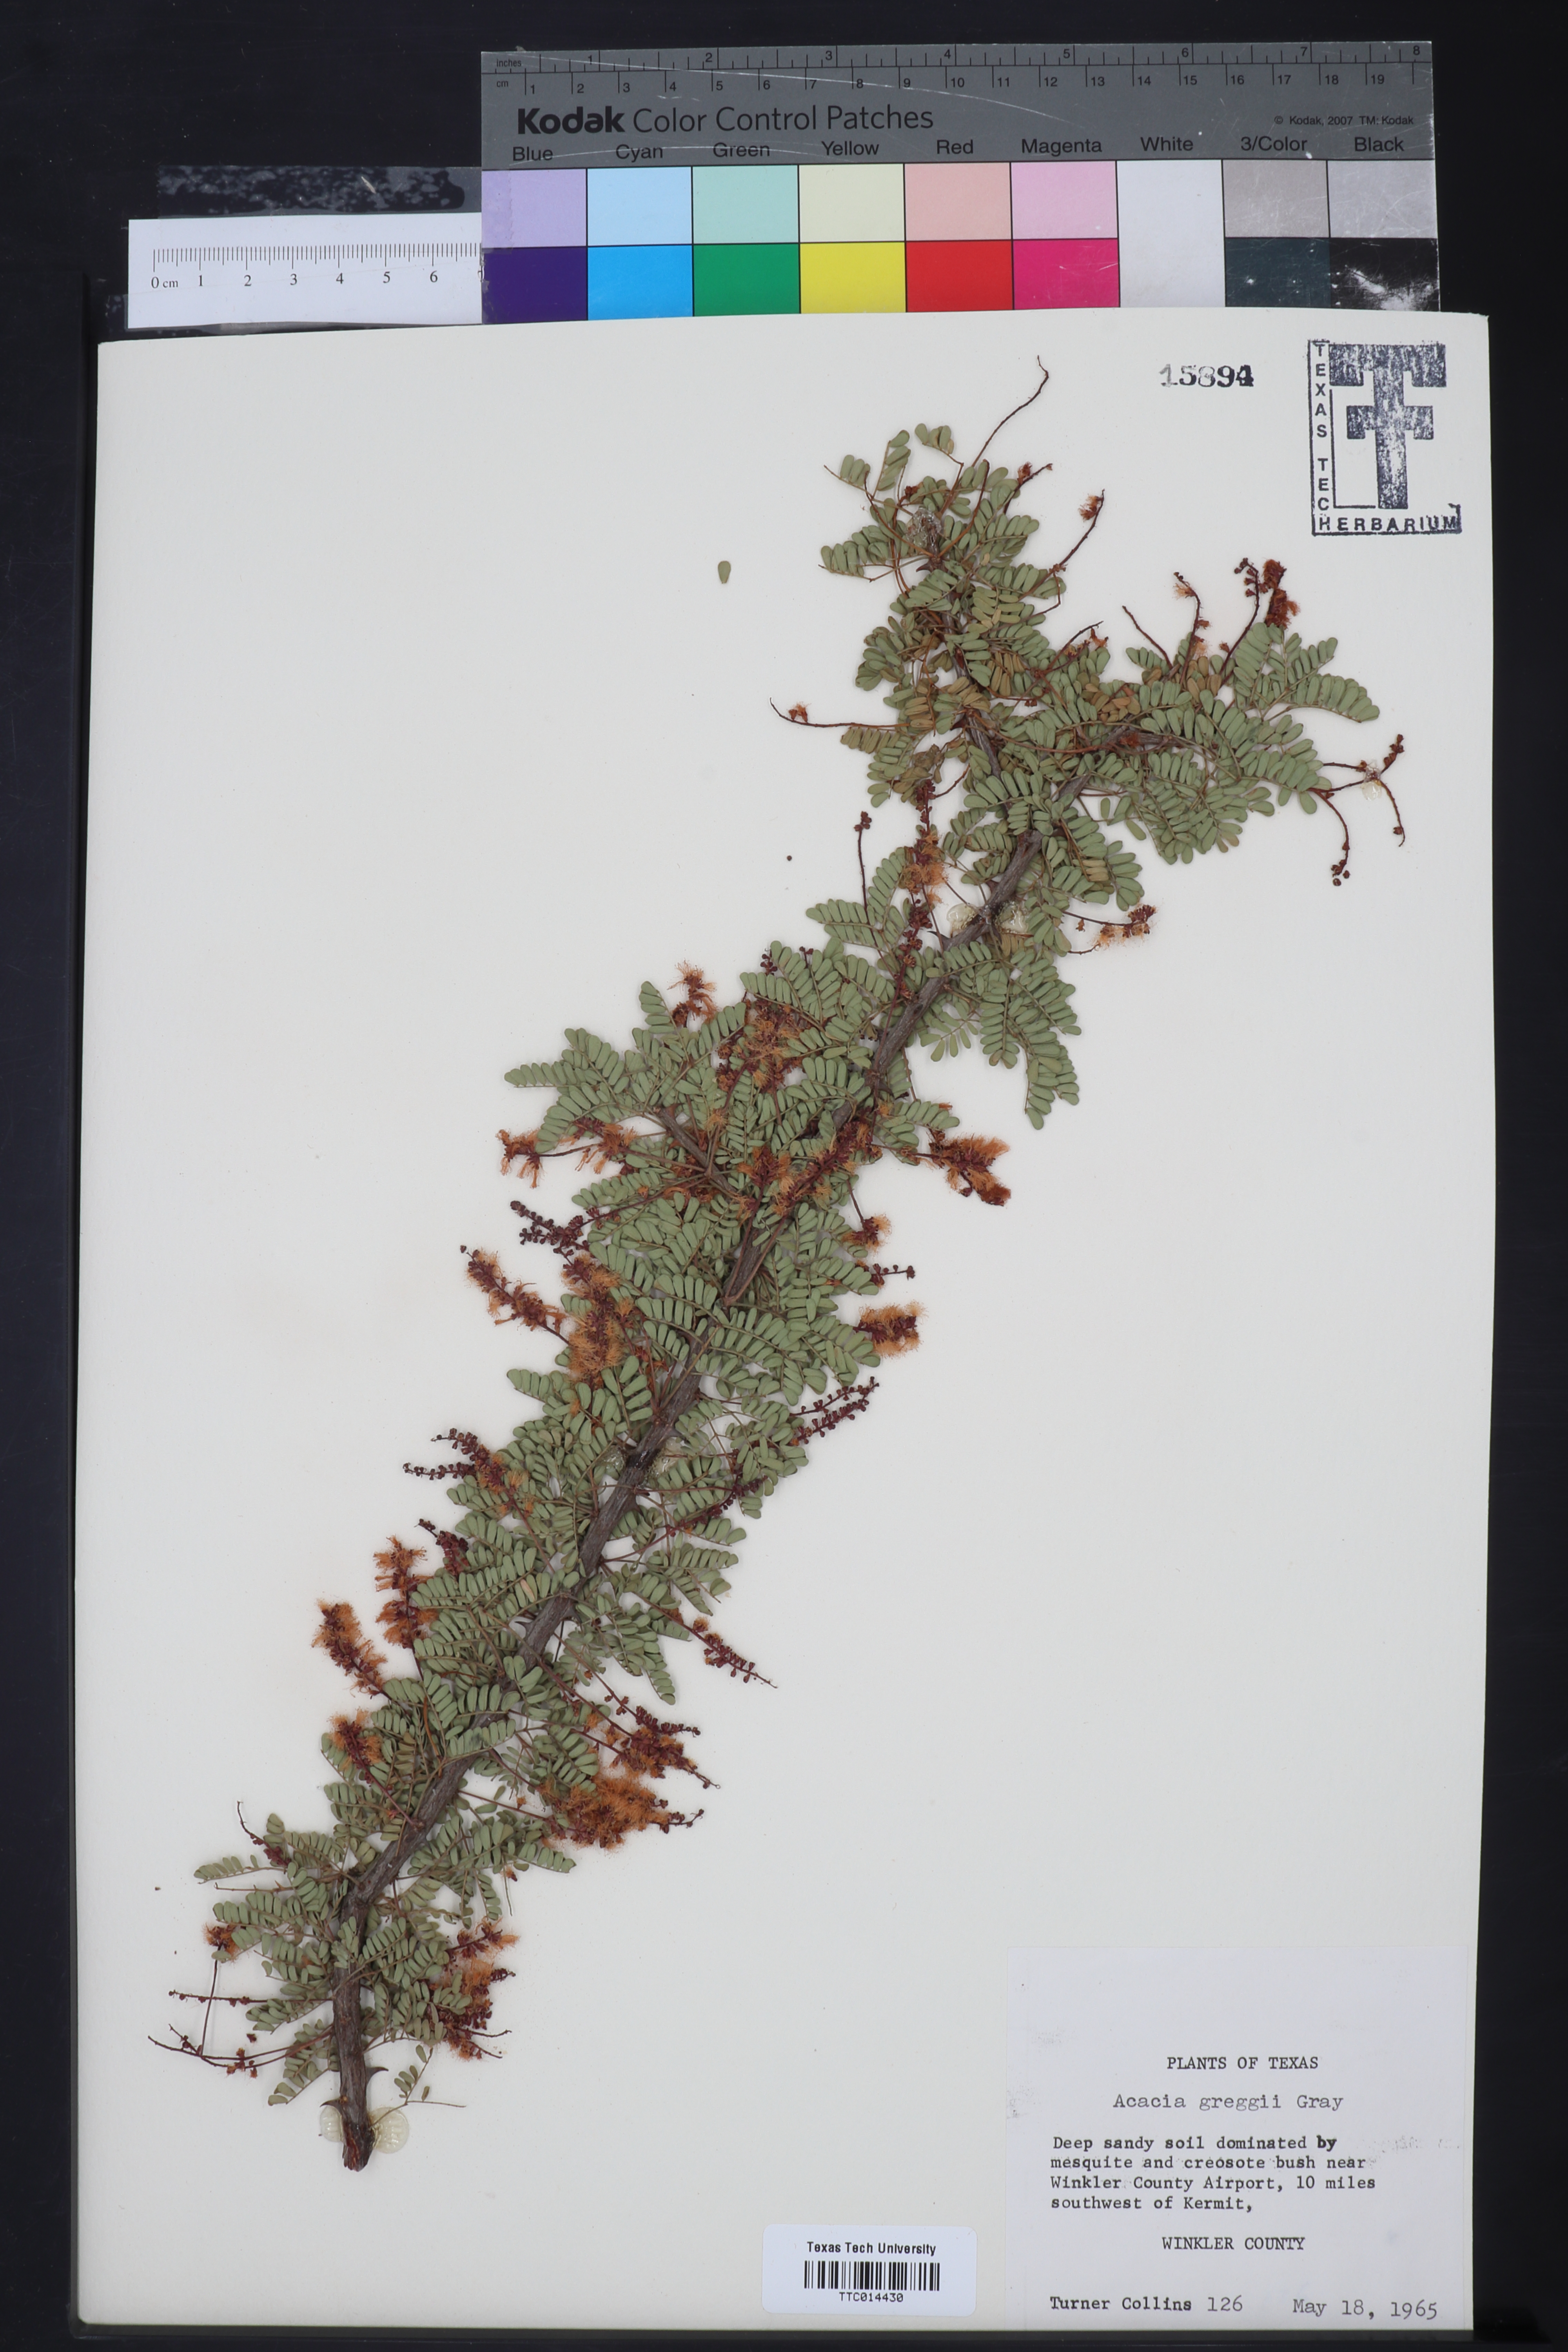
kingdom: Plantae
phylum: Tracheophyta
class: Magnoliopsida
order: Fabales
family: Fabaceae
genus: Senegalia
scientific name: Senegalia greggii
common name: Texas-mimosa
